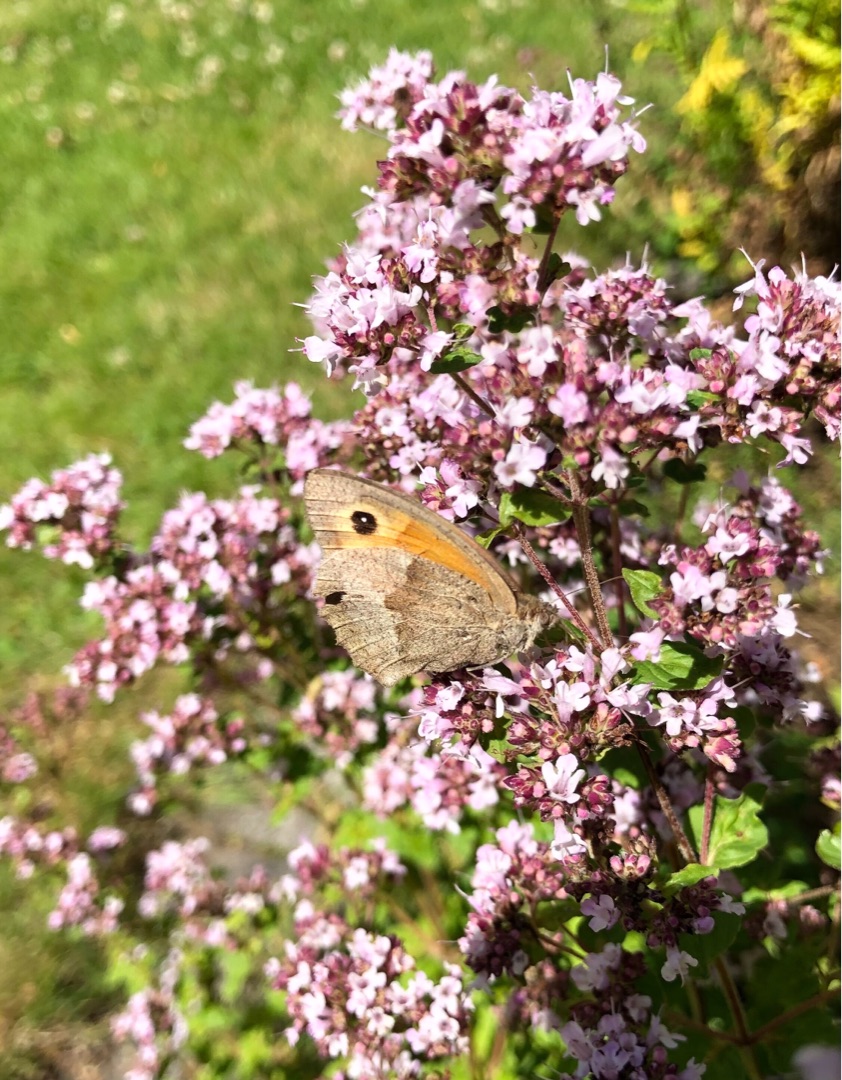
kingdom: Animalia
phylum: Arthropoda
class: Insecta
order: Lepidoptera
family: Nymphalidae
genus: Maniola
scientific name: Maniola jurtina
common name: Græsrandøje
